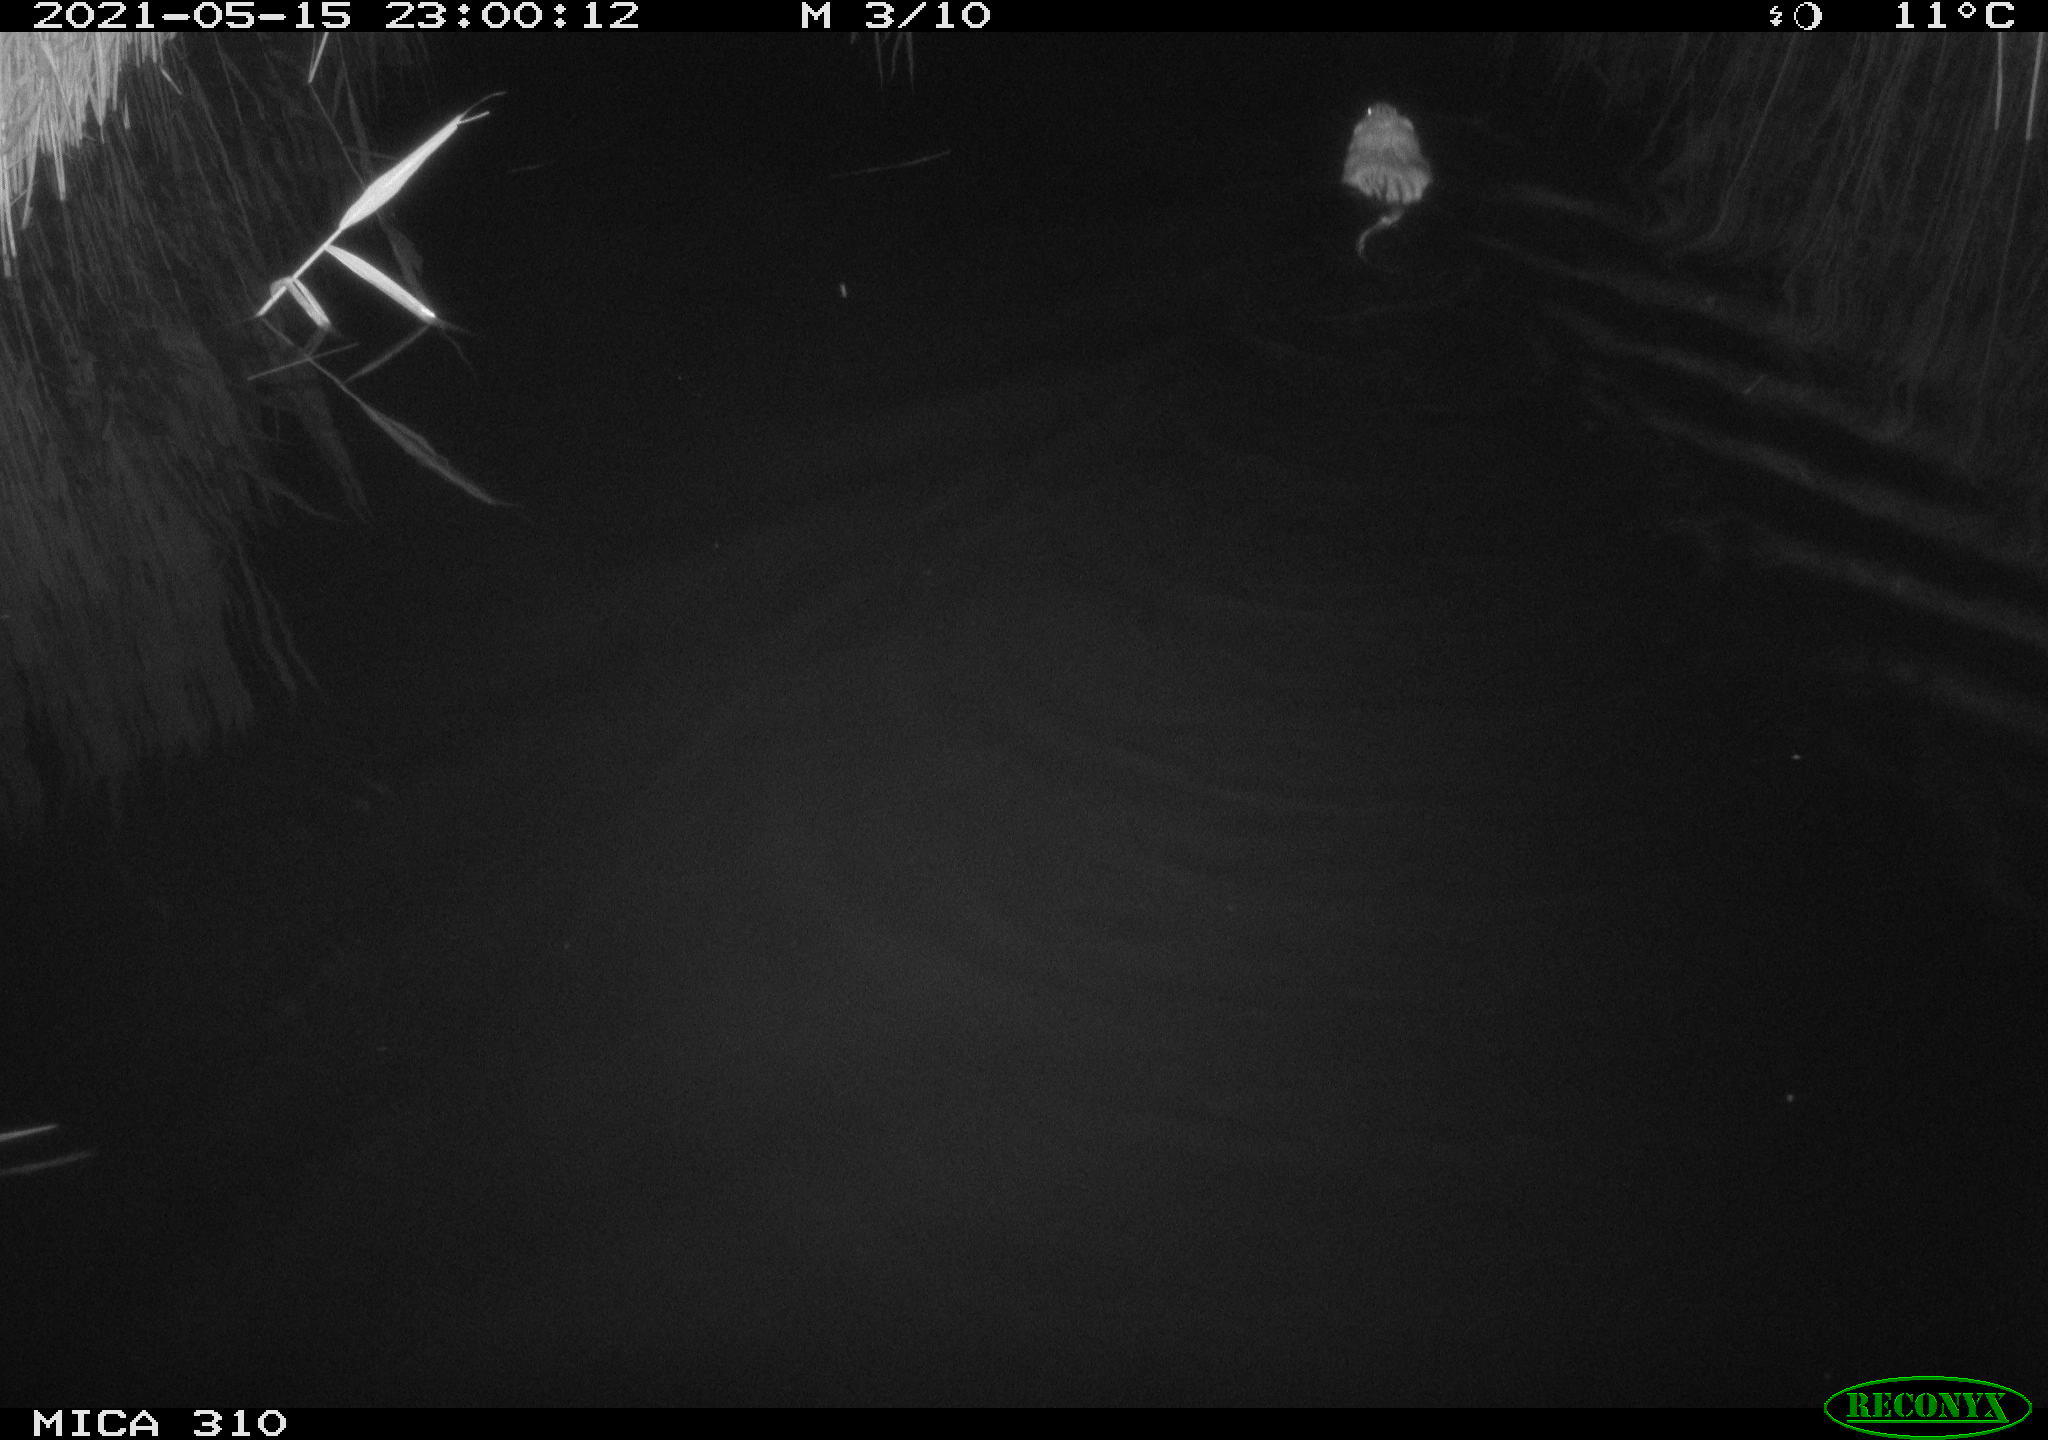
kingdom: Animalia
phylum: Chordata
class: Mammalia
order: Rodentia
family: Cricetidae
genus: Ondatra
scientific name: Ondatra zibethicus
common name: Muskrat
